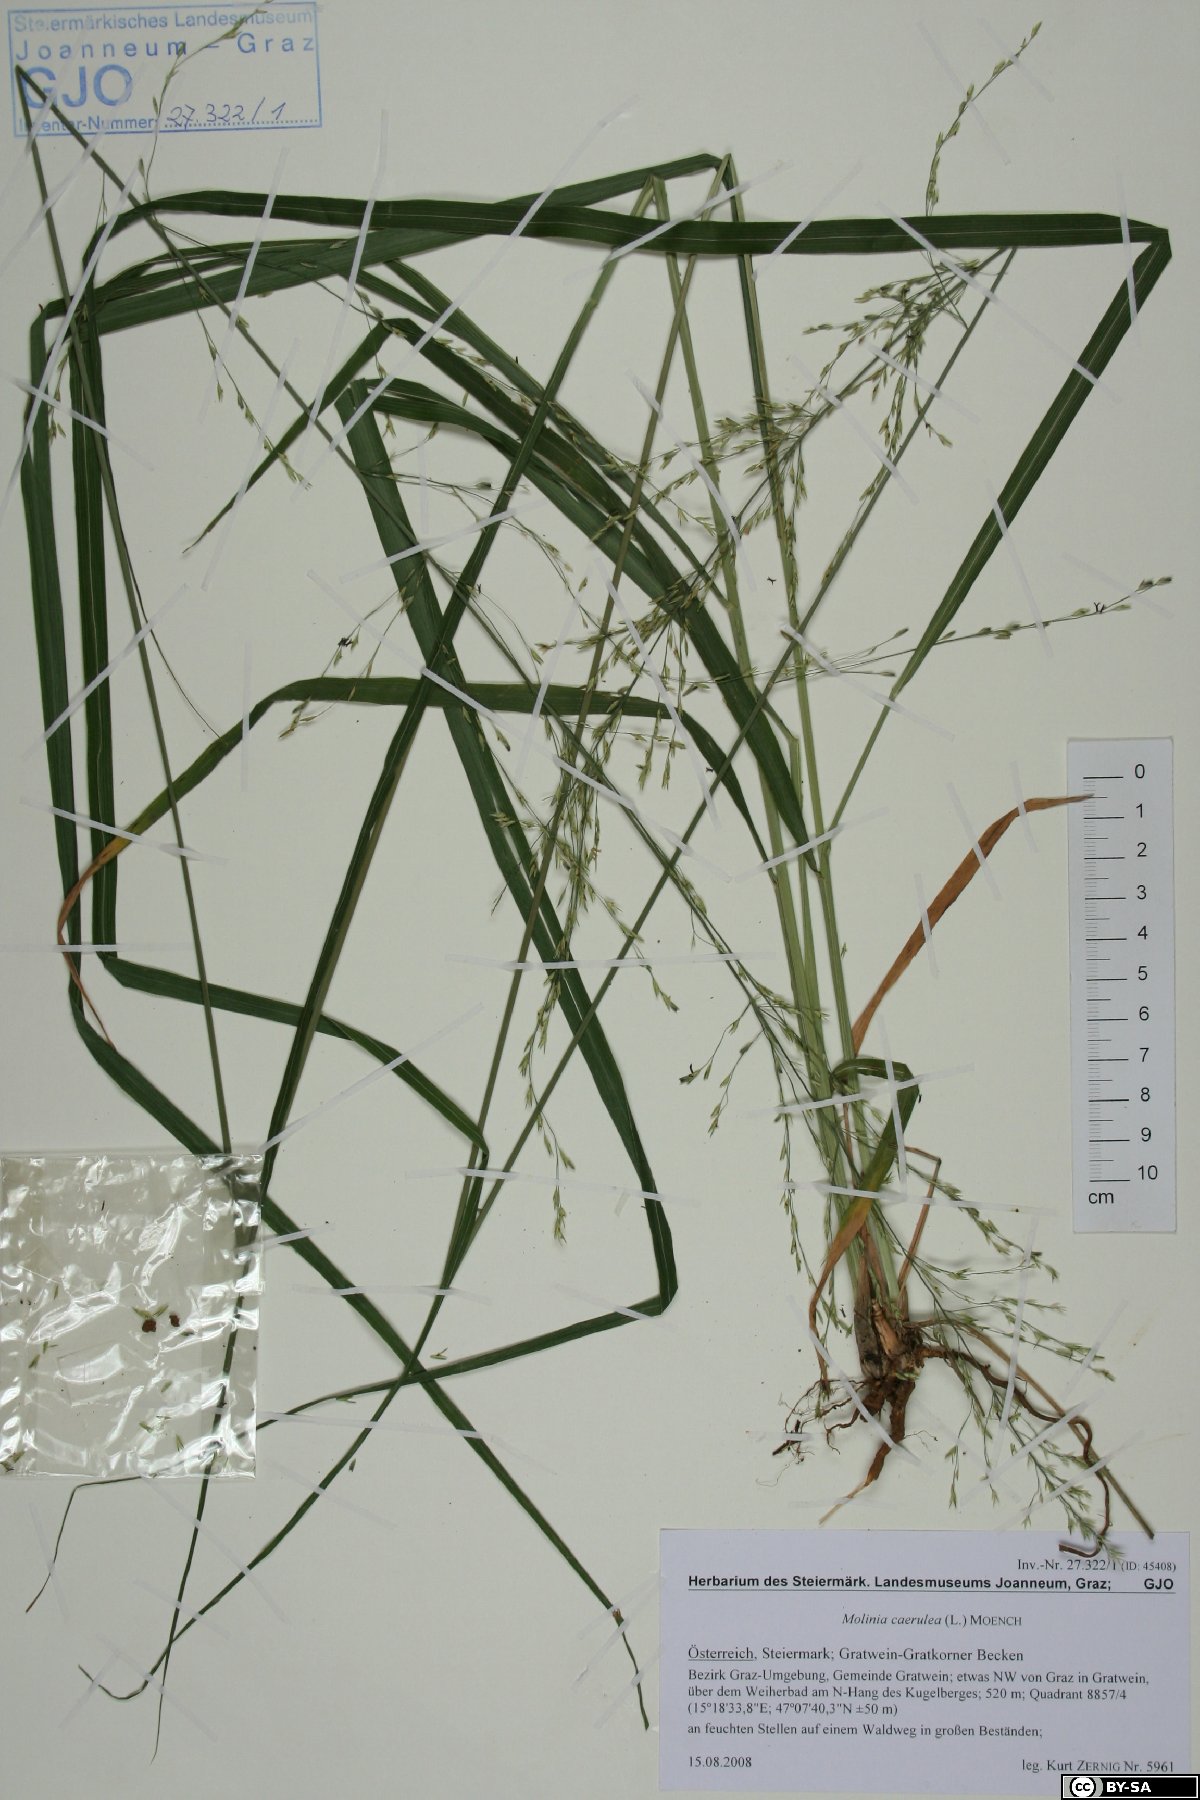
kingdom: Plantae
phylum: Tracheophyta
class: Liliopsida
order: Poales
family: Poaceae
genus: Molinia
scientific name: Molinia caerulea
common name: Purple moor-grass
